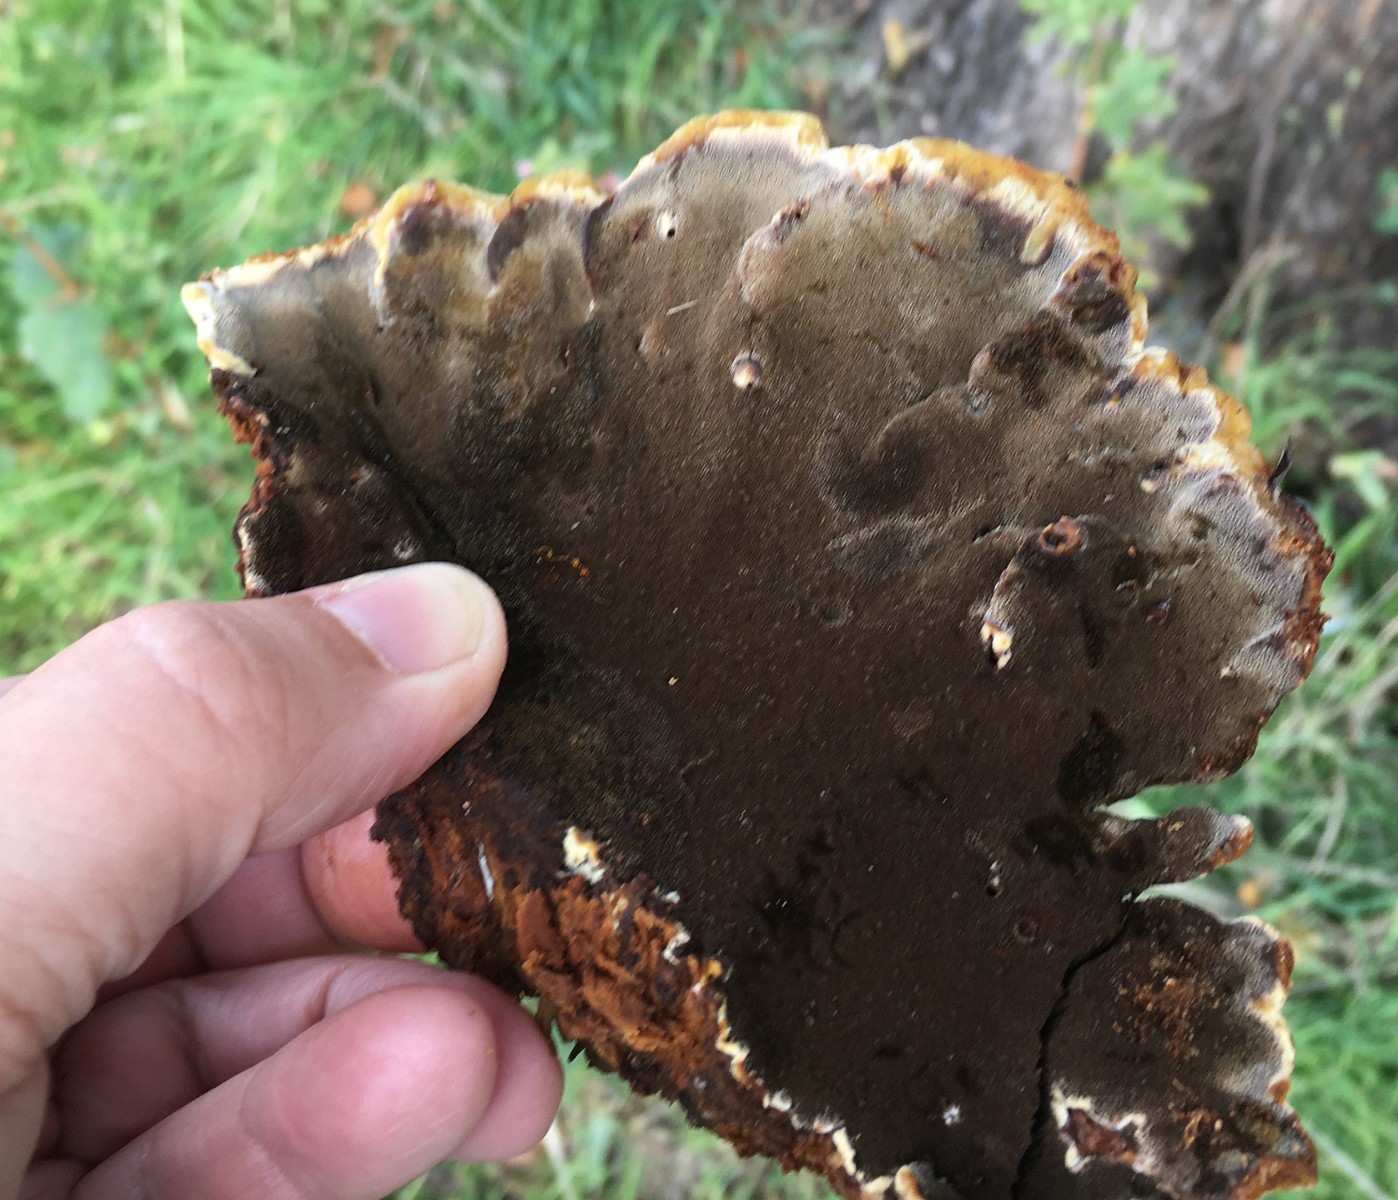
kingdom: Fungi
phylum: Basidiomycota
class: Agaricomycetes
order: Hymenochaetales
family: Hymenochaetaceae
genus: Inonotus
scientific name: Inonotus cuticularis
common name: kroghåret spejlporesvamp
